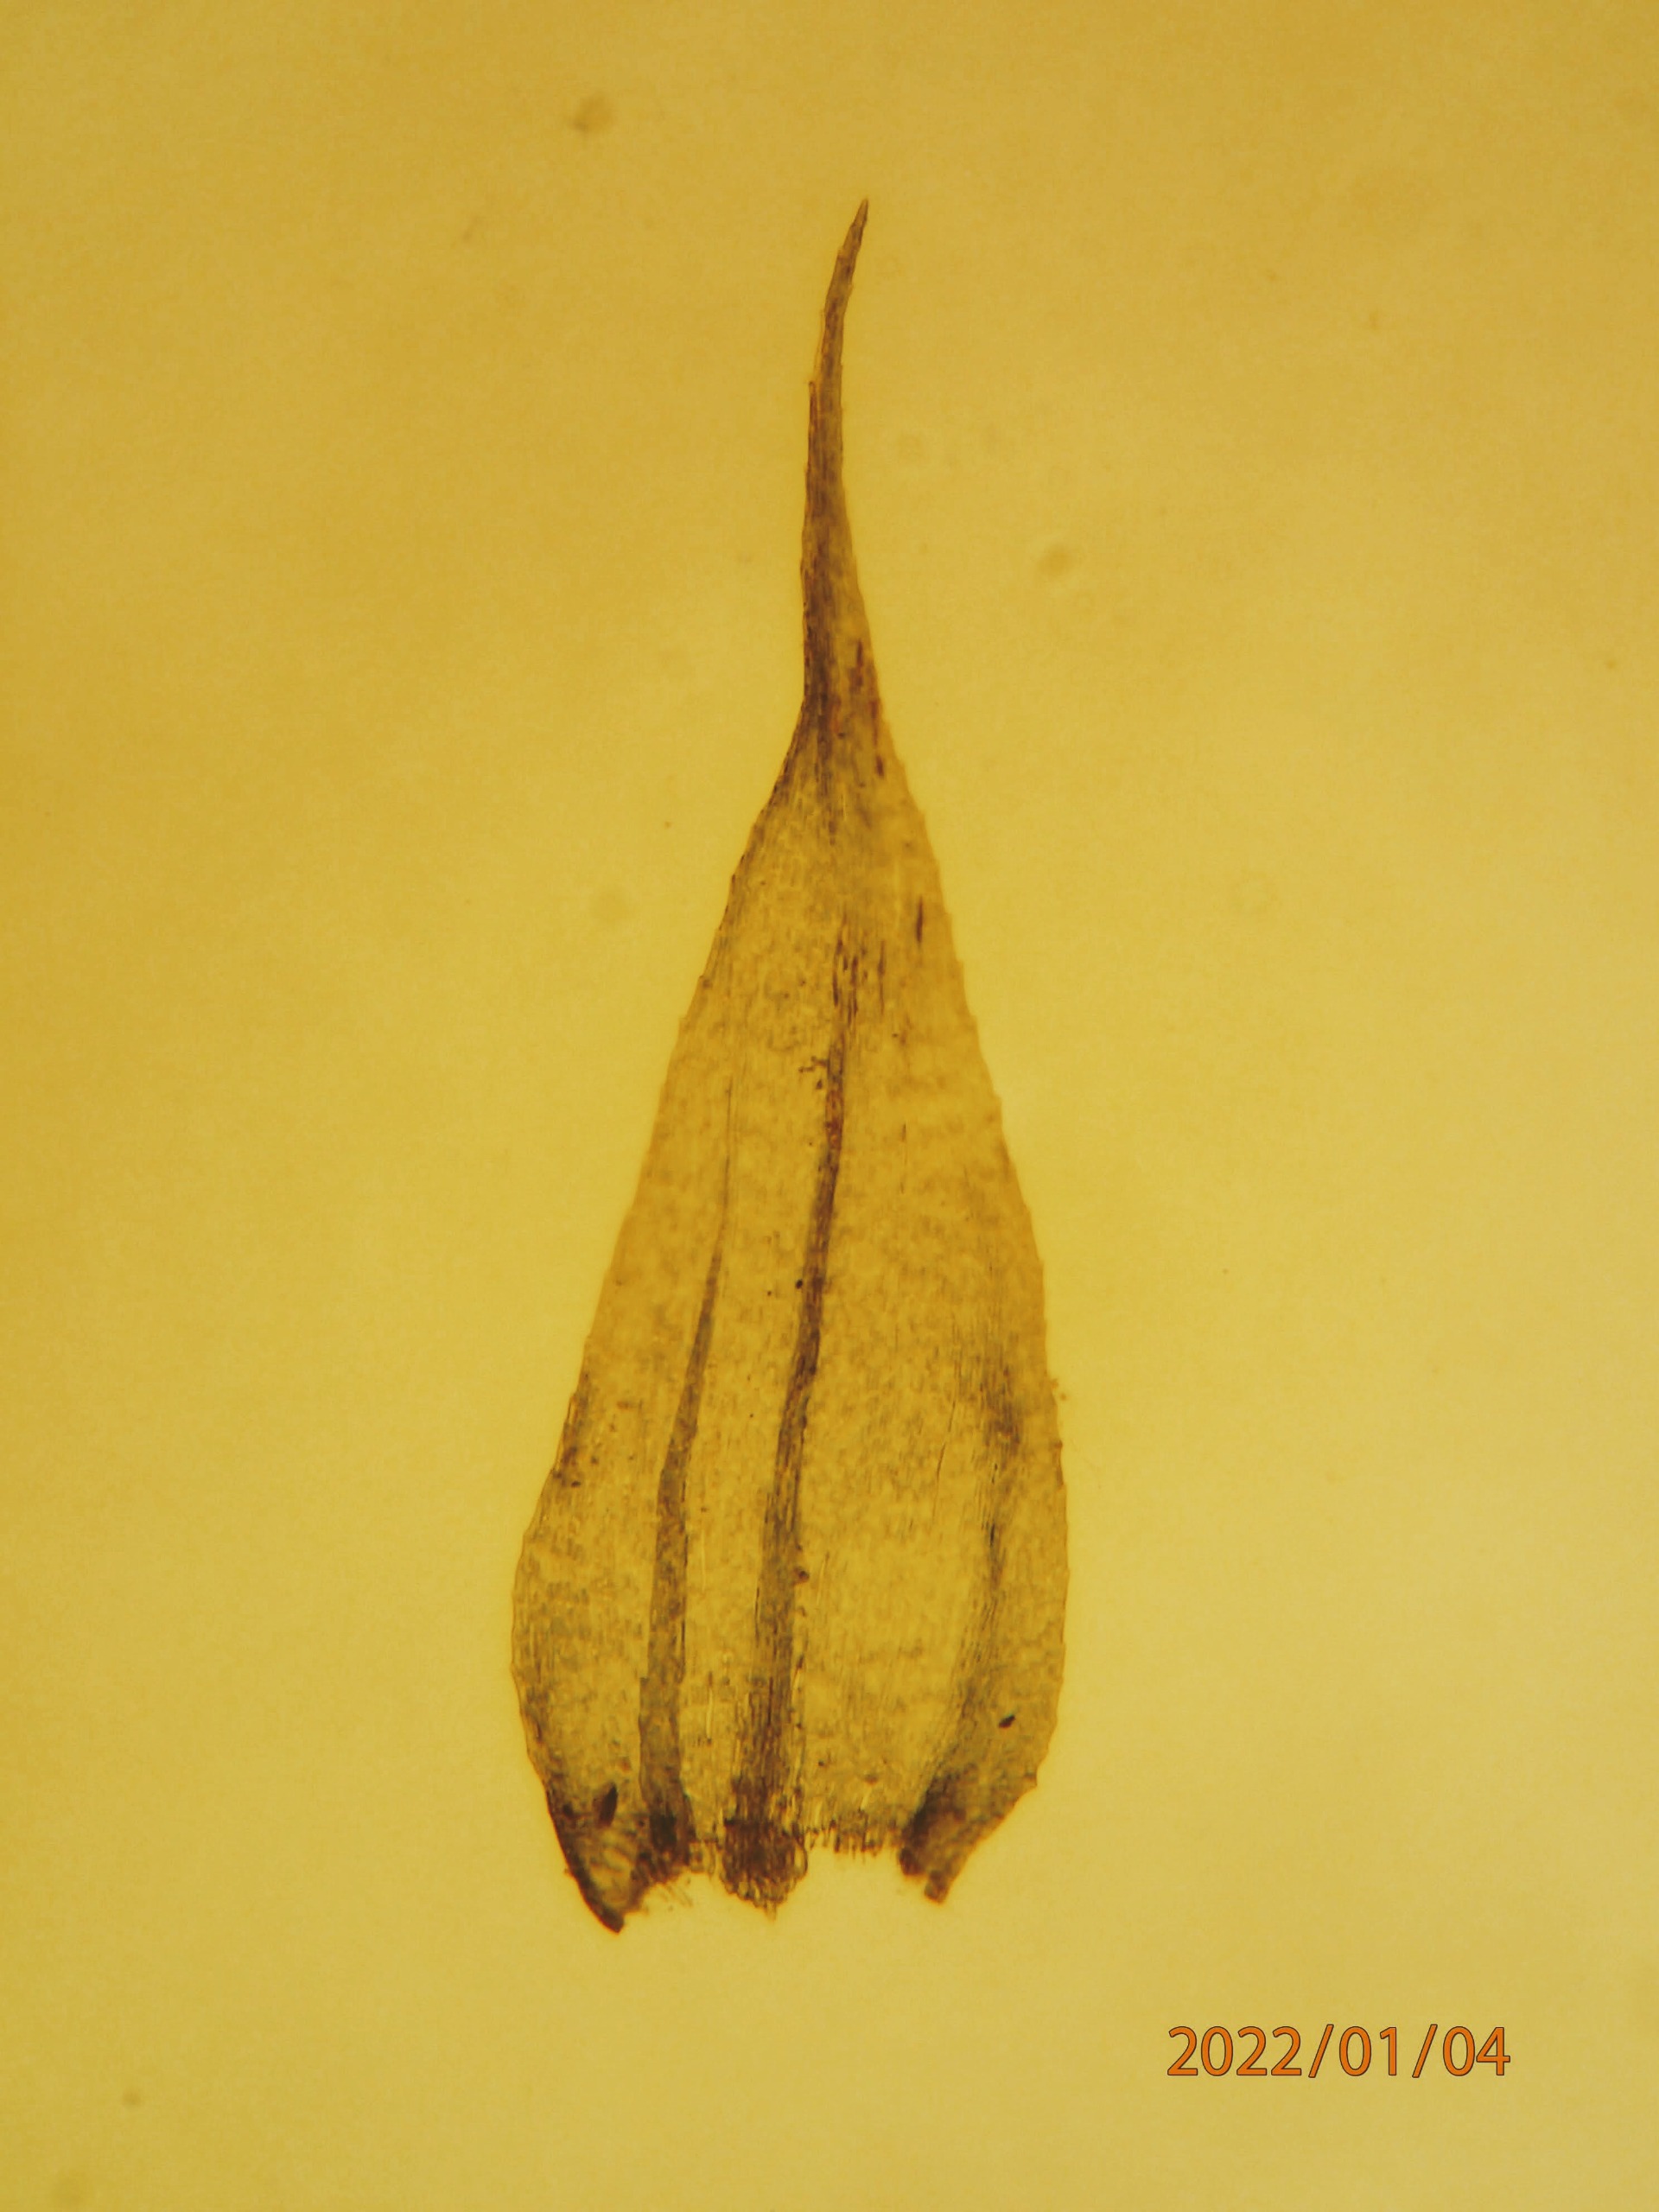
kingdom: Plantae
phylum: Bryophyta
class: Bryopsida
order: Hypnales
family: Brachytheciaceae
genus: Brachytheciastrum
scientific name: Brachytheciastrum velutinum
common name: Fløjls-kortkapsel
